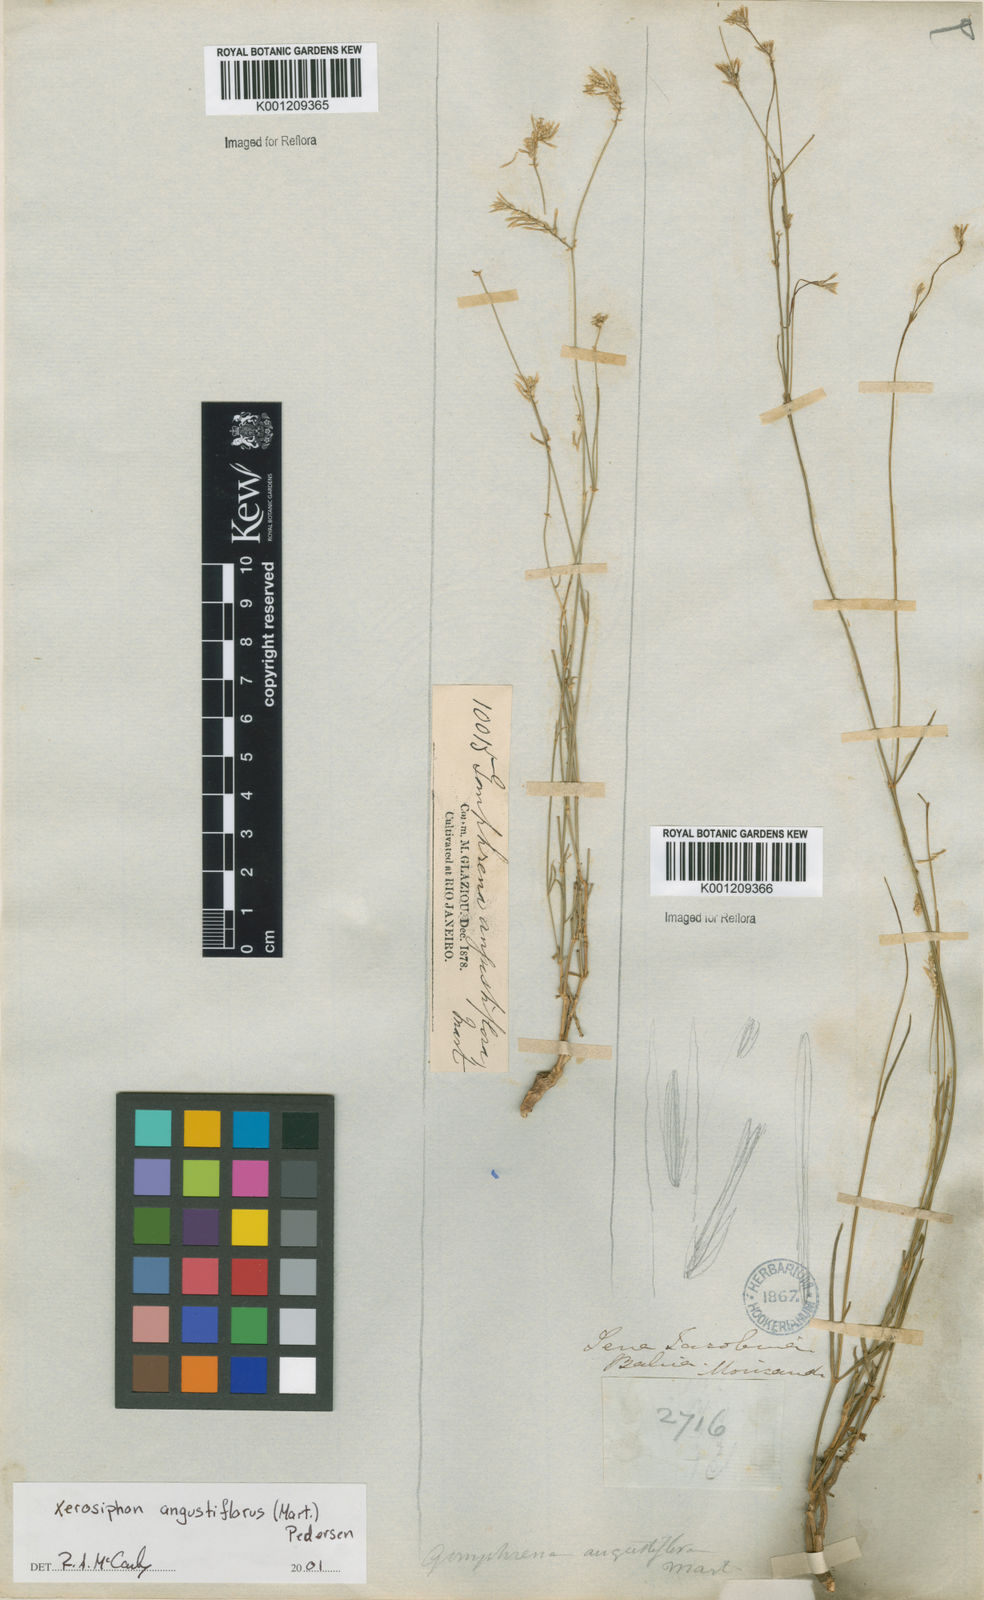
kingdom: Plantae
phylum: Tracheophyta
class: Magnoliopsida
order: Caryophyllales
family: Amaranthaceae
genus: Gomphrena
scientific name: Gomphrena angustiflora
